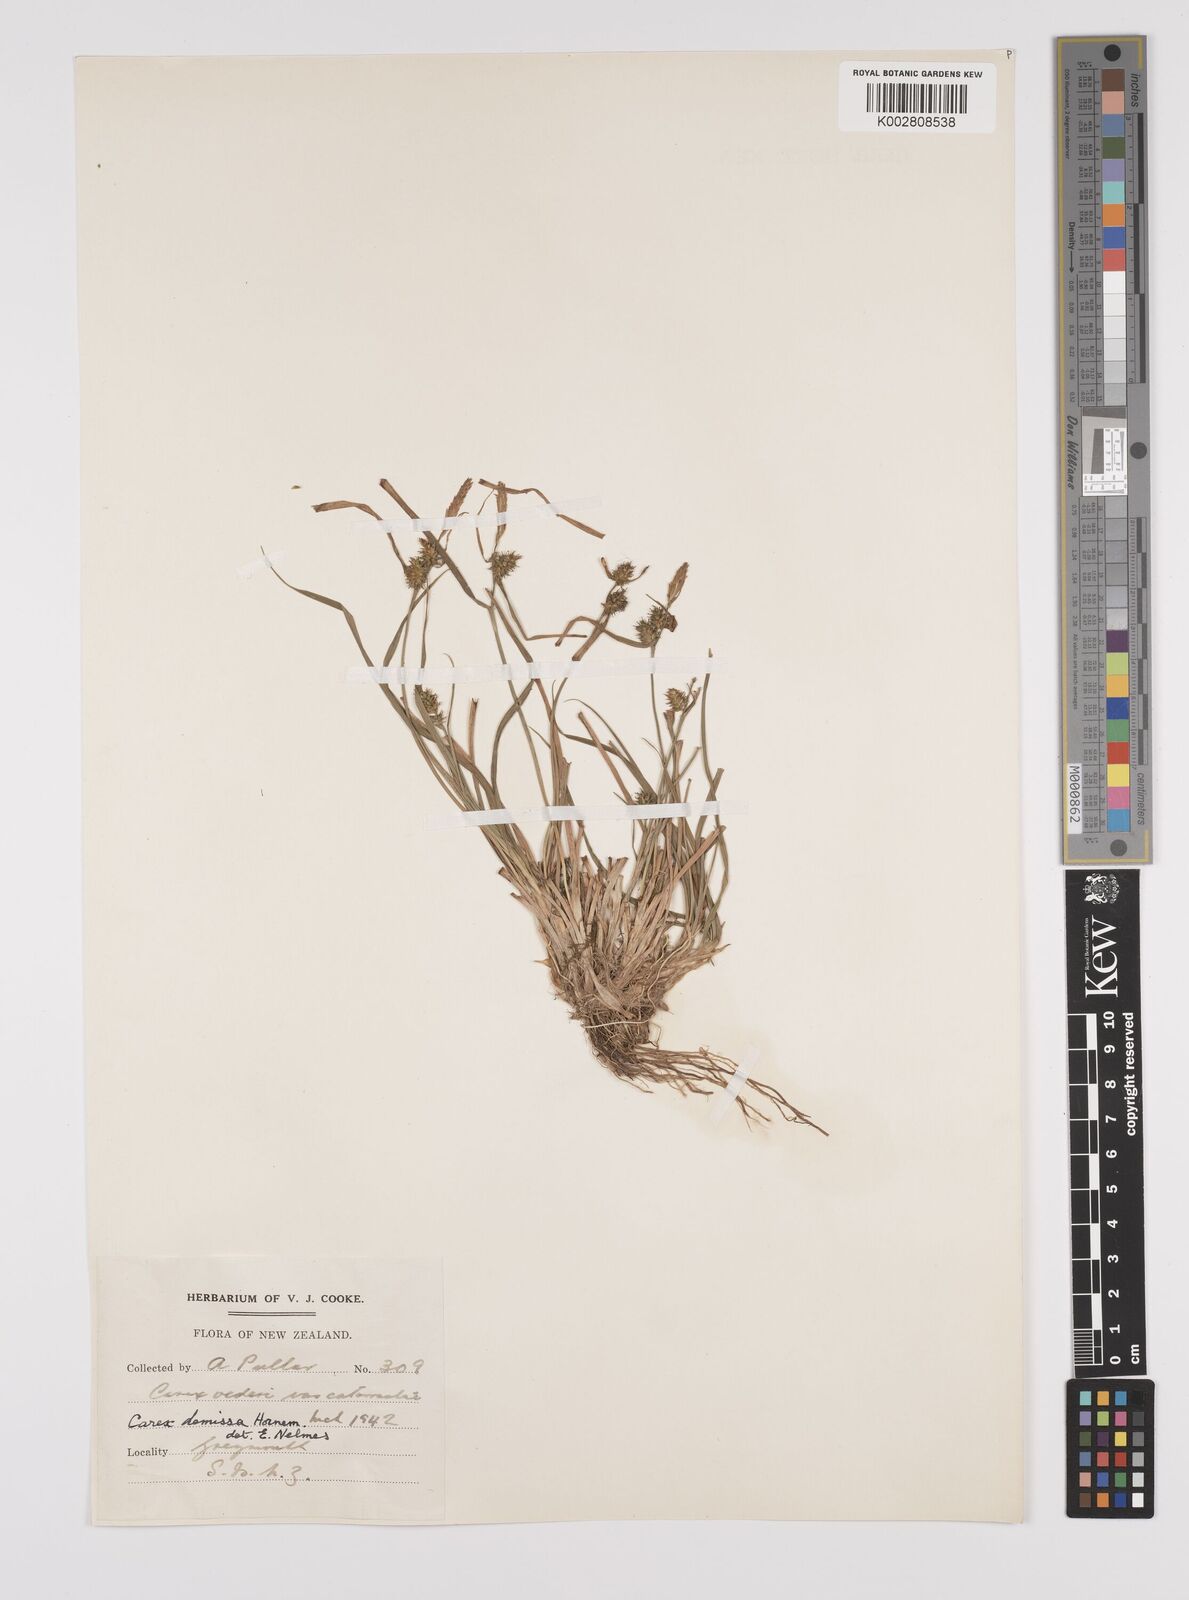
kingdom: Plantae
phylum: Tracheophyta
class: Liliopsida
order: Poales
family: Cyperaceae
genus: Carex
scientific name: Carex demissa
